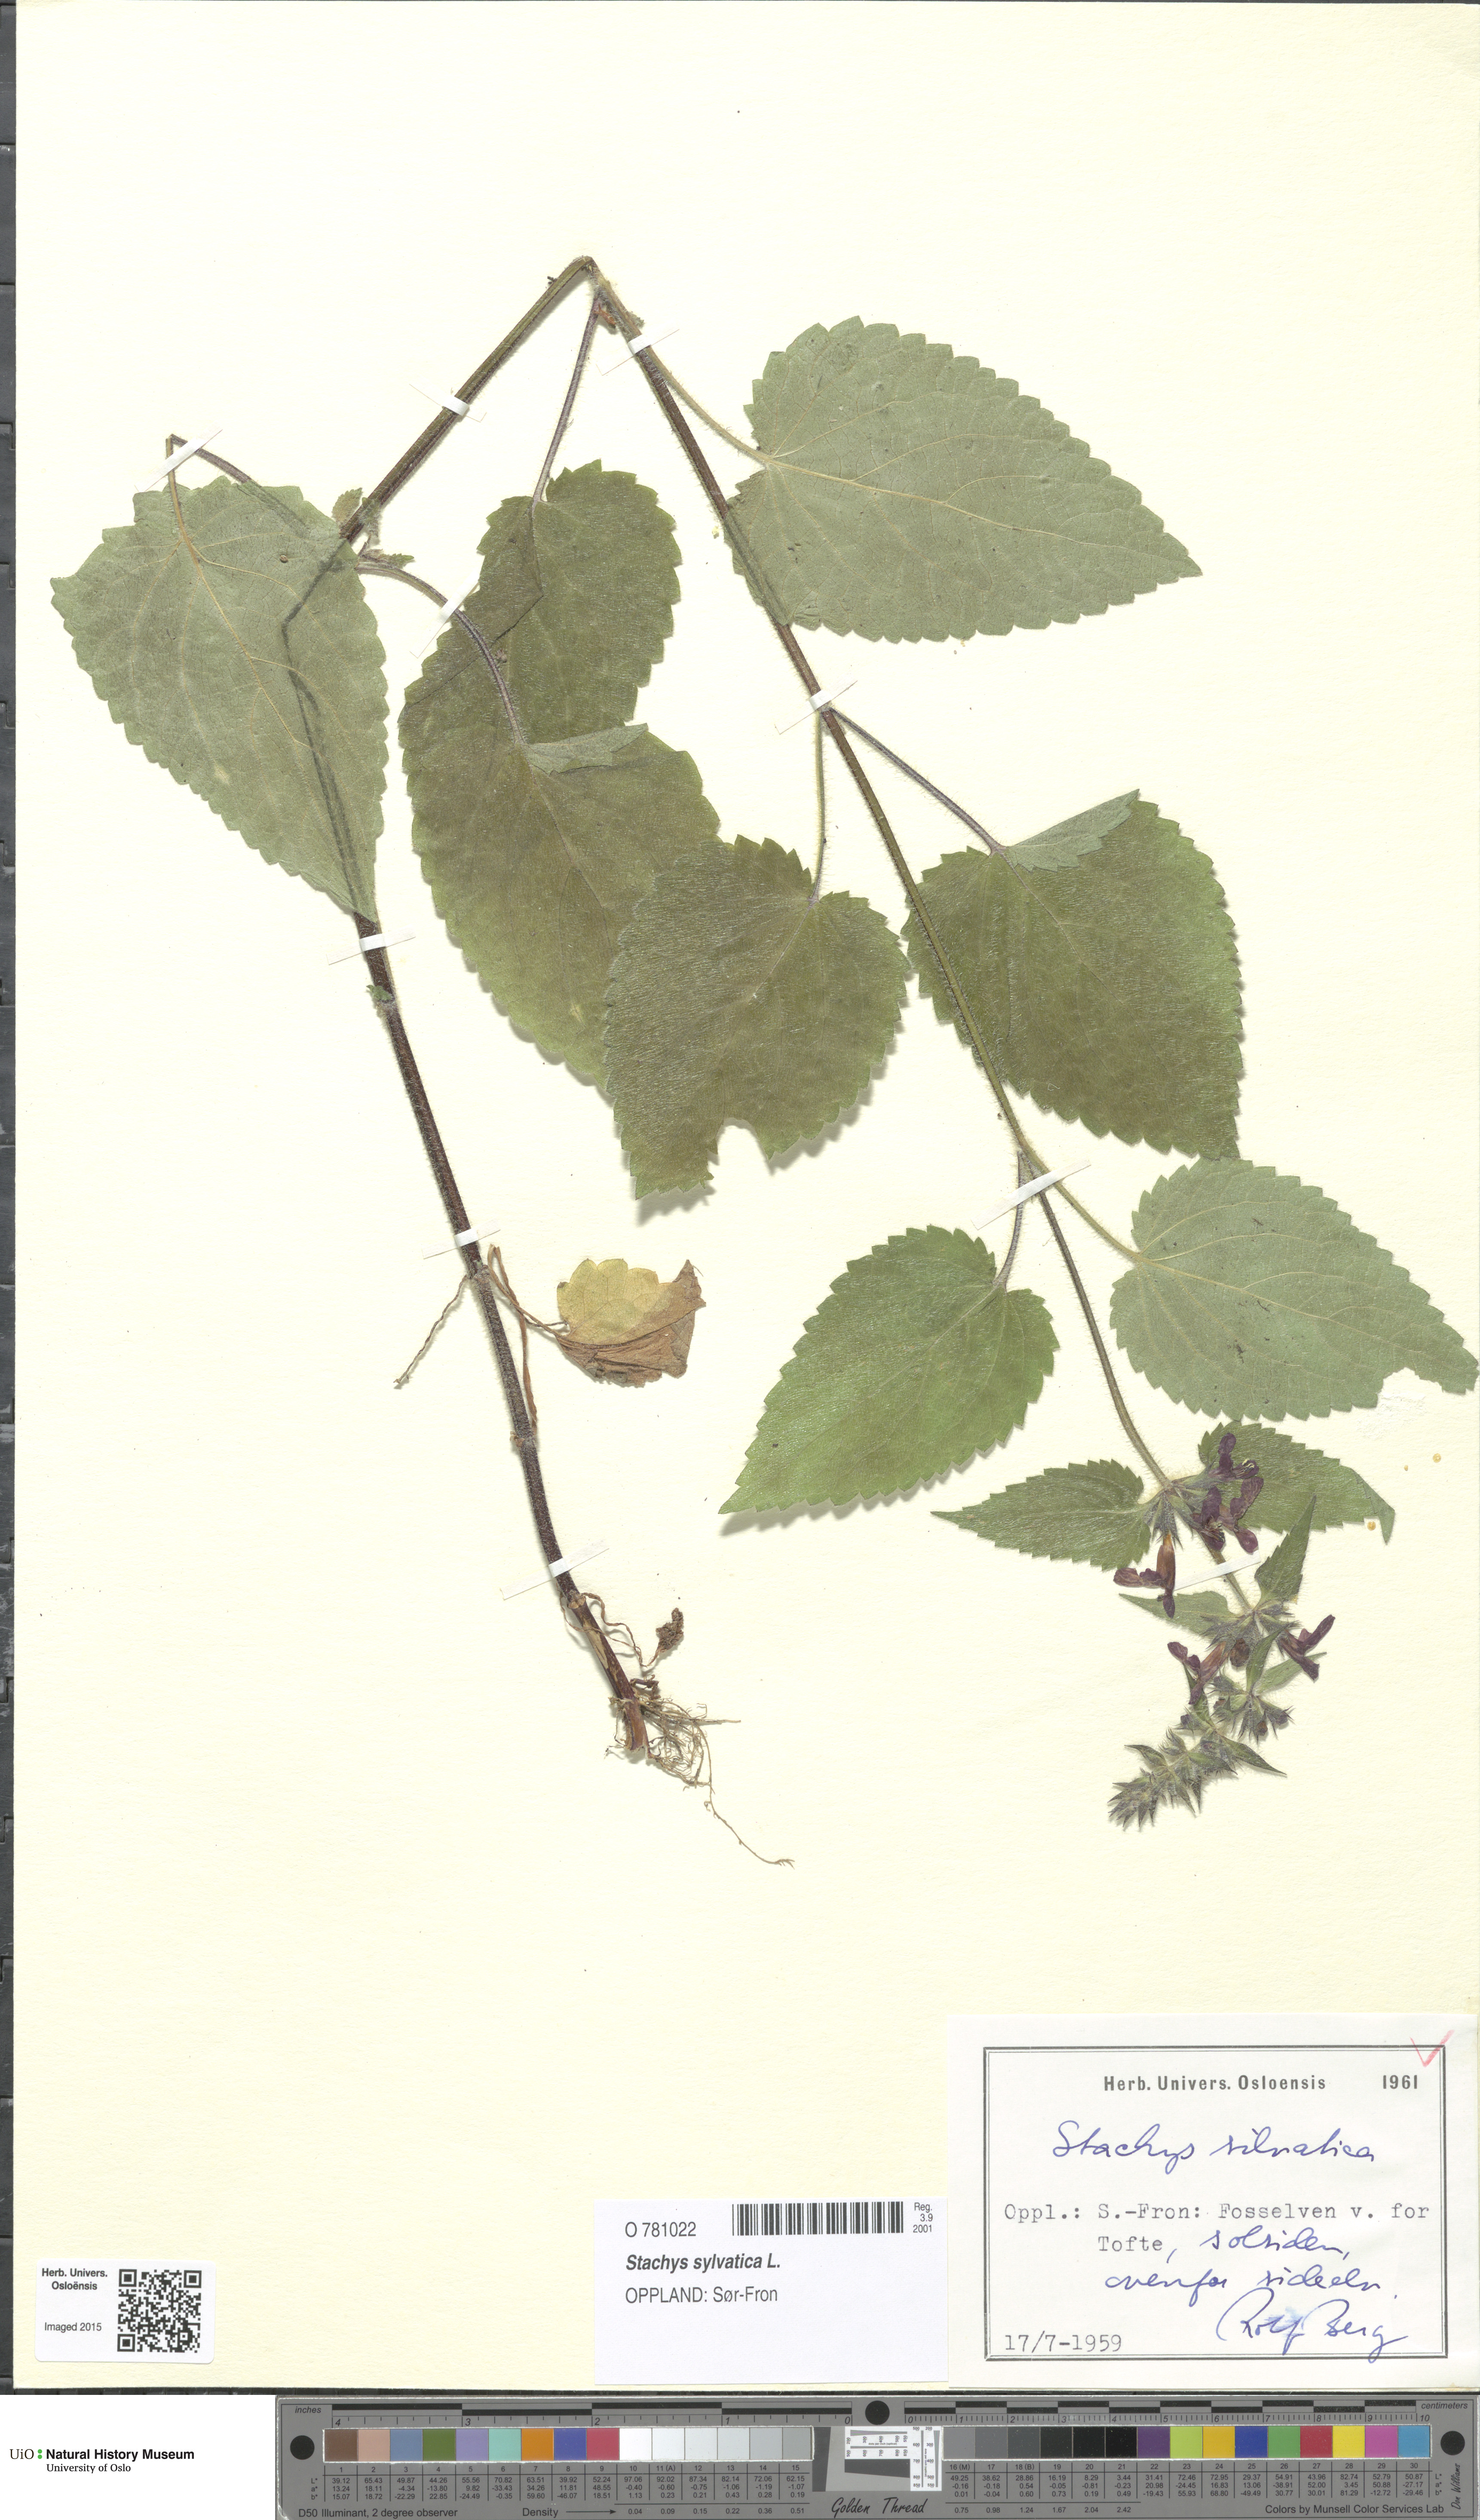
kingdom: Plantae
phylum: Tracheophyta
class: Magnoliopsida
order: Lamiales
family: Lamiaceae
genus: Stachys
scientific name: Stachys sylvatica
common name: Hedge woundwort
